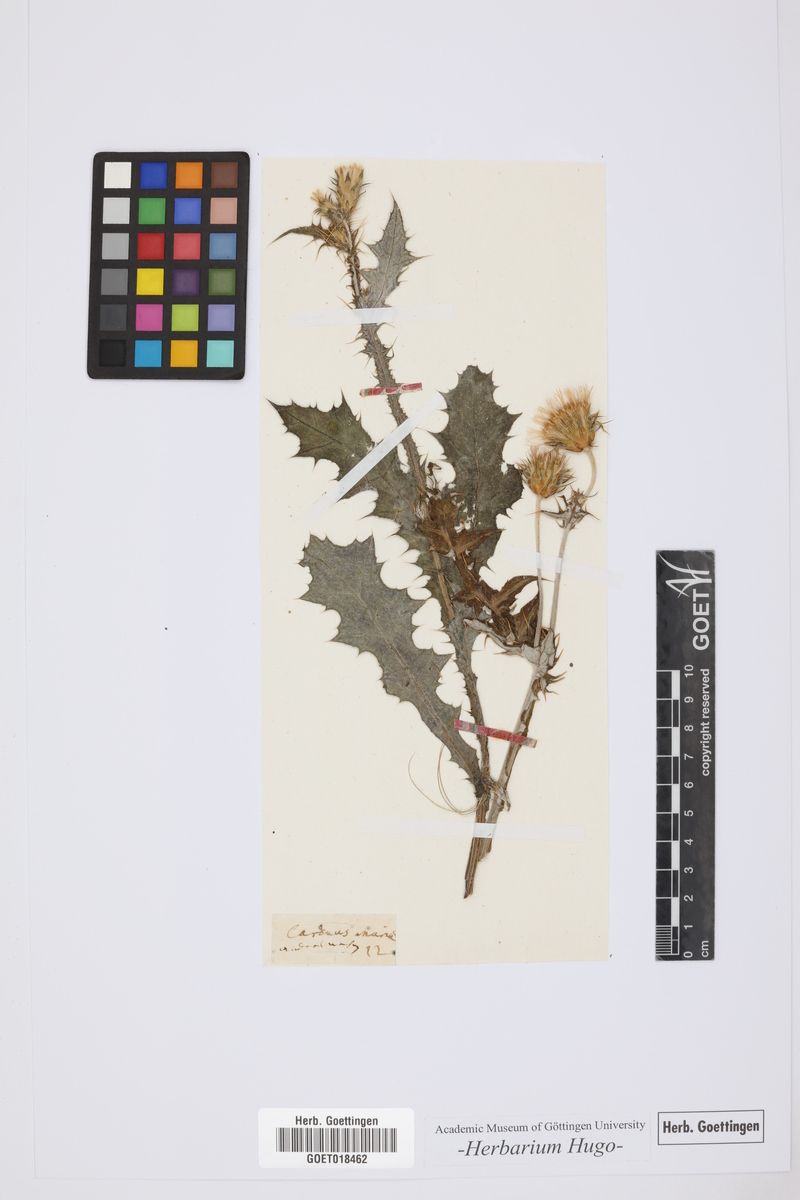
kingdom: Plantae
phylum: Tracheophyta
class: Magnoliopsida
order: Asterales
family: Asteraceae
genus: Carduus
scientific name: Carduus
